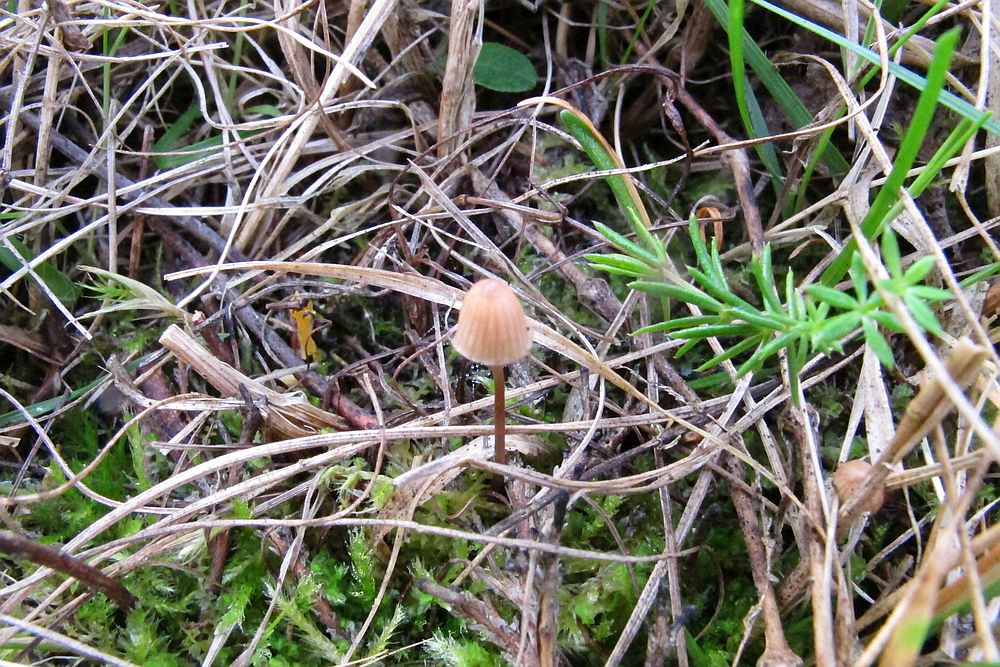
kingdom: Fungi
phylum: Basidiomycota
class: Agaricomycetes
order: Agaricales
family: Mycenaceae
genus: Mycena
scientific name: Mycena sanguinolenta
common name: rødmælket huesvamp
